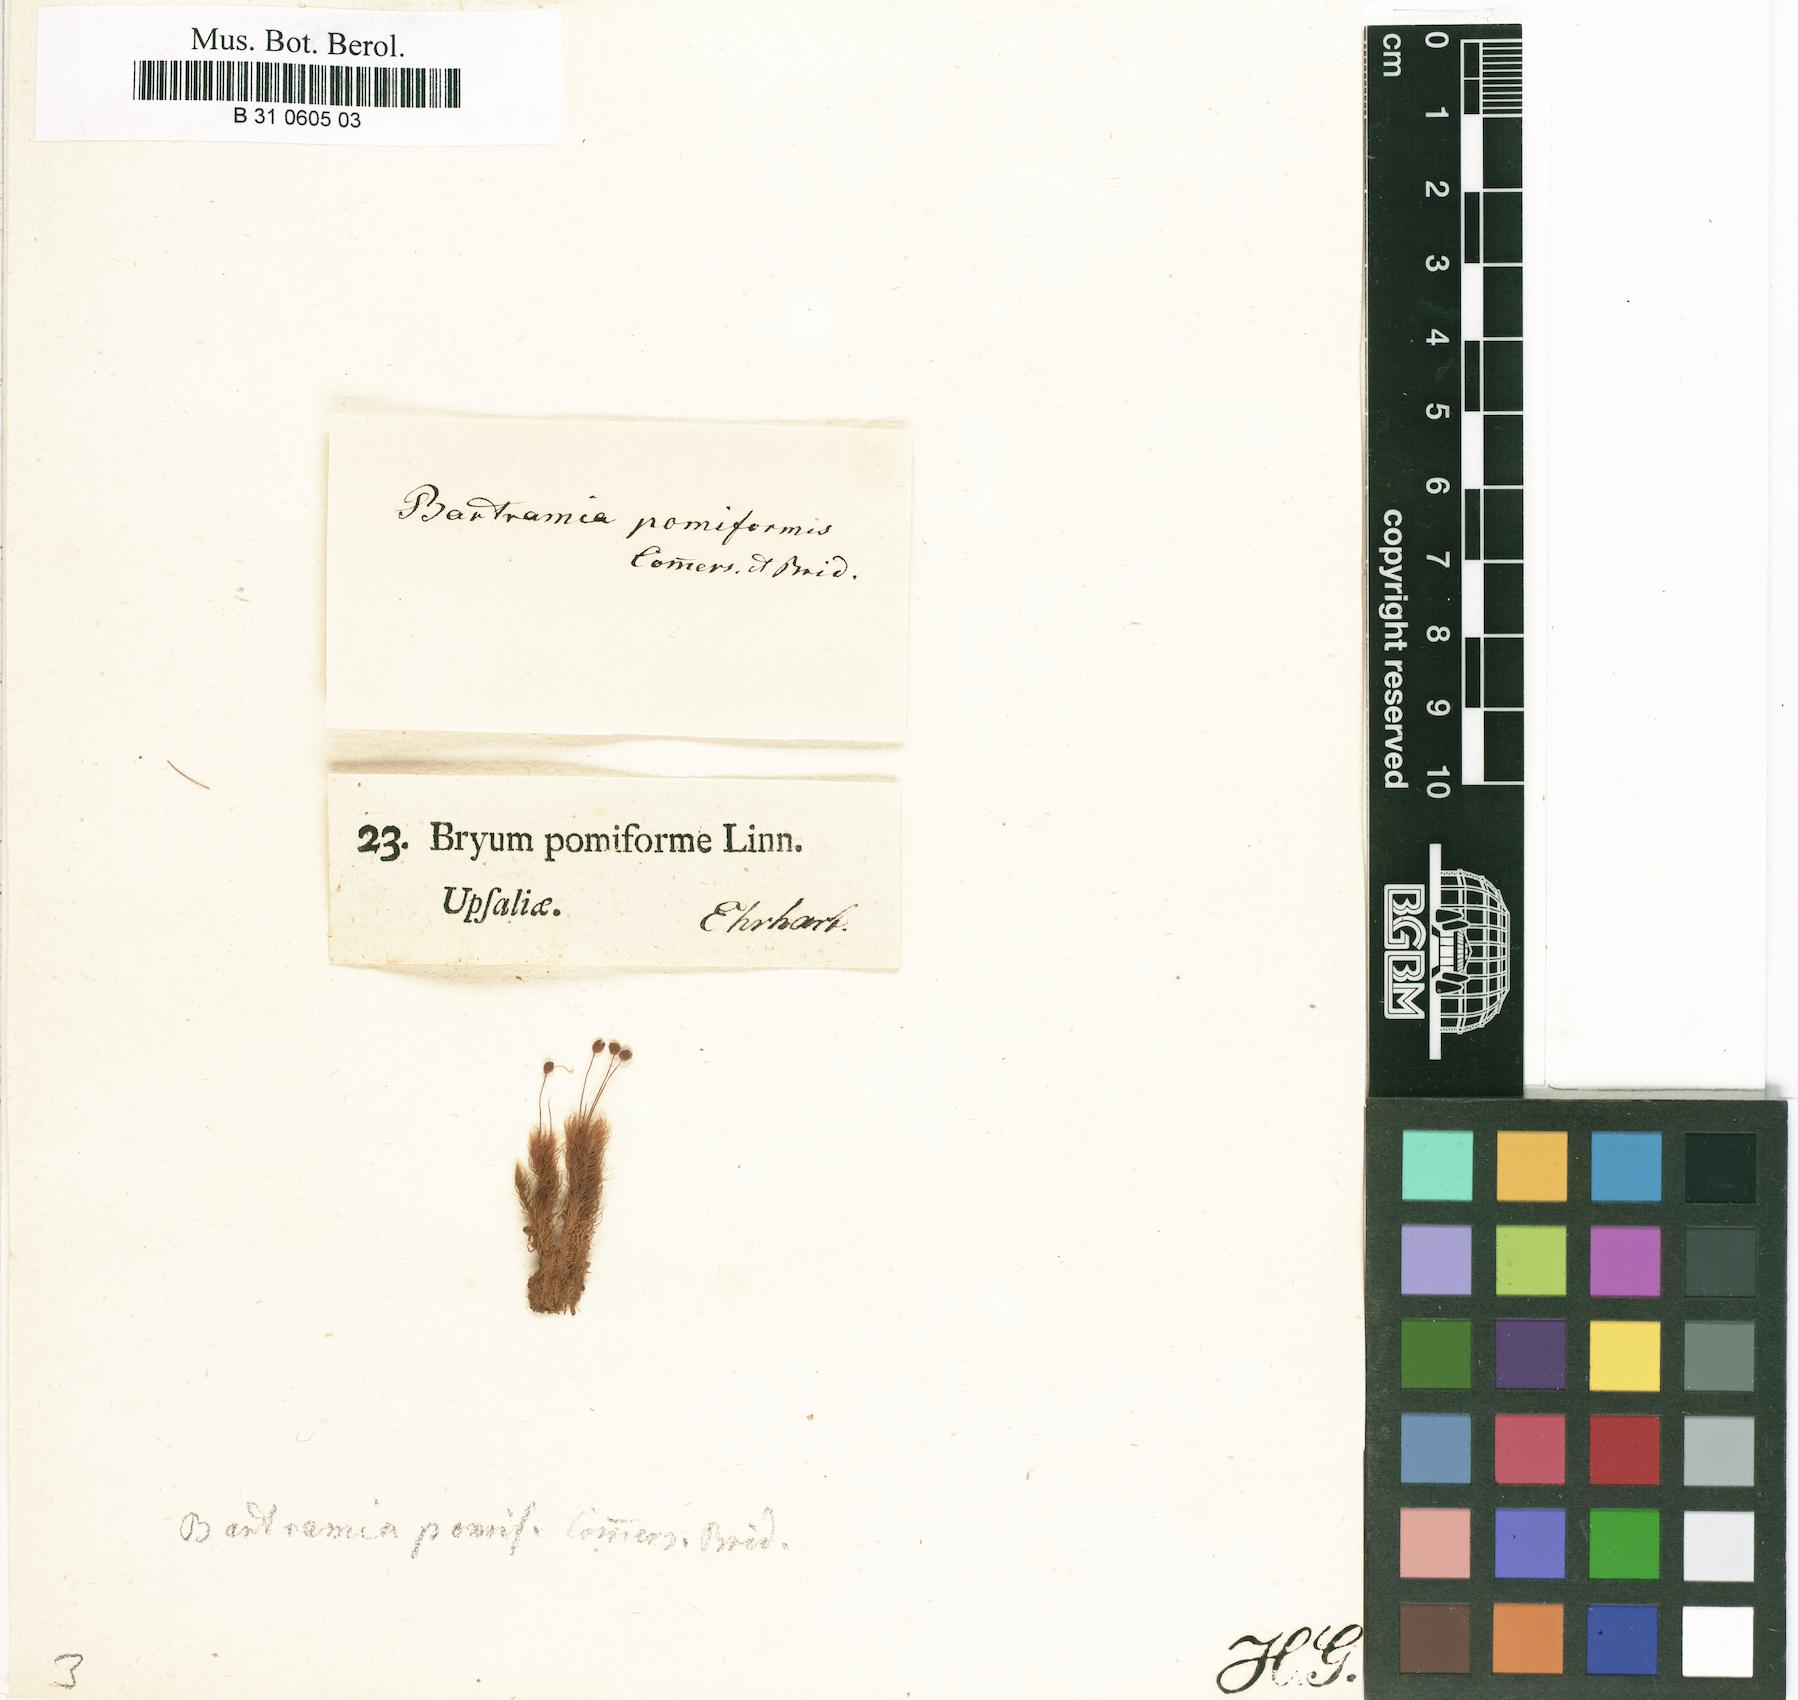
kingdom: Plantae
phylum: Bryophyta
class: Bryopsida
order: Bartramiales
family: Bartramiaceae
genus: Bartramia
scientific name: Bartramia pomiformis
